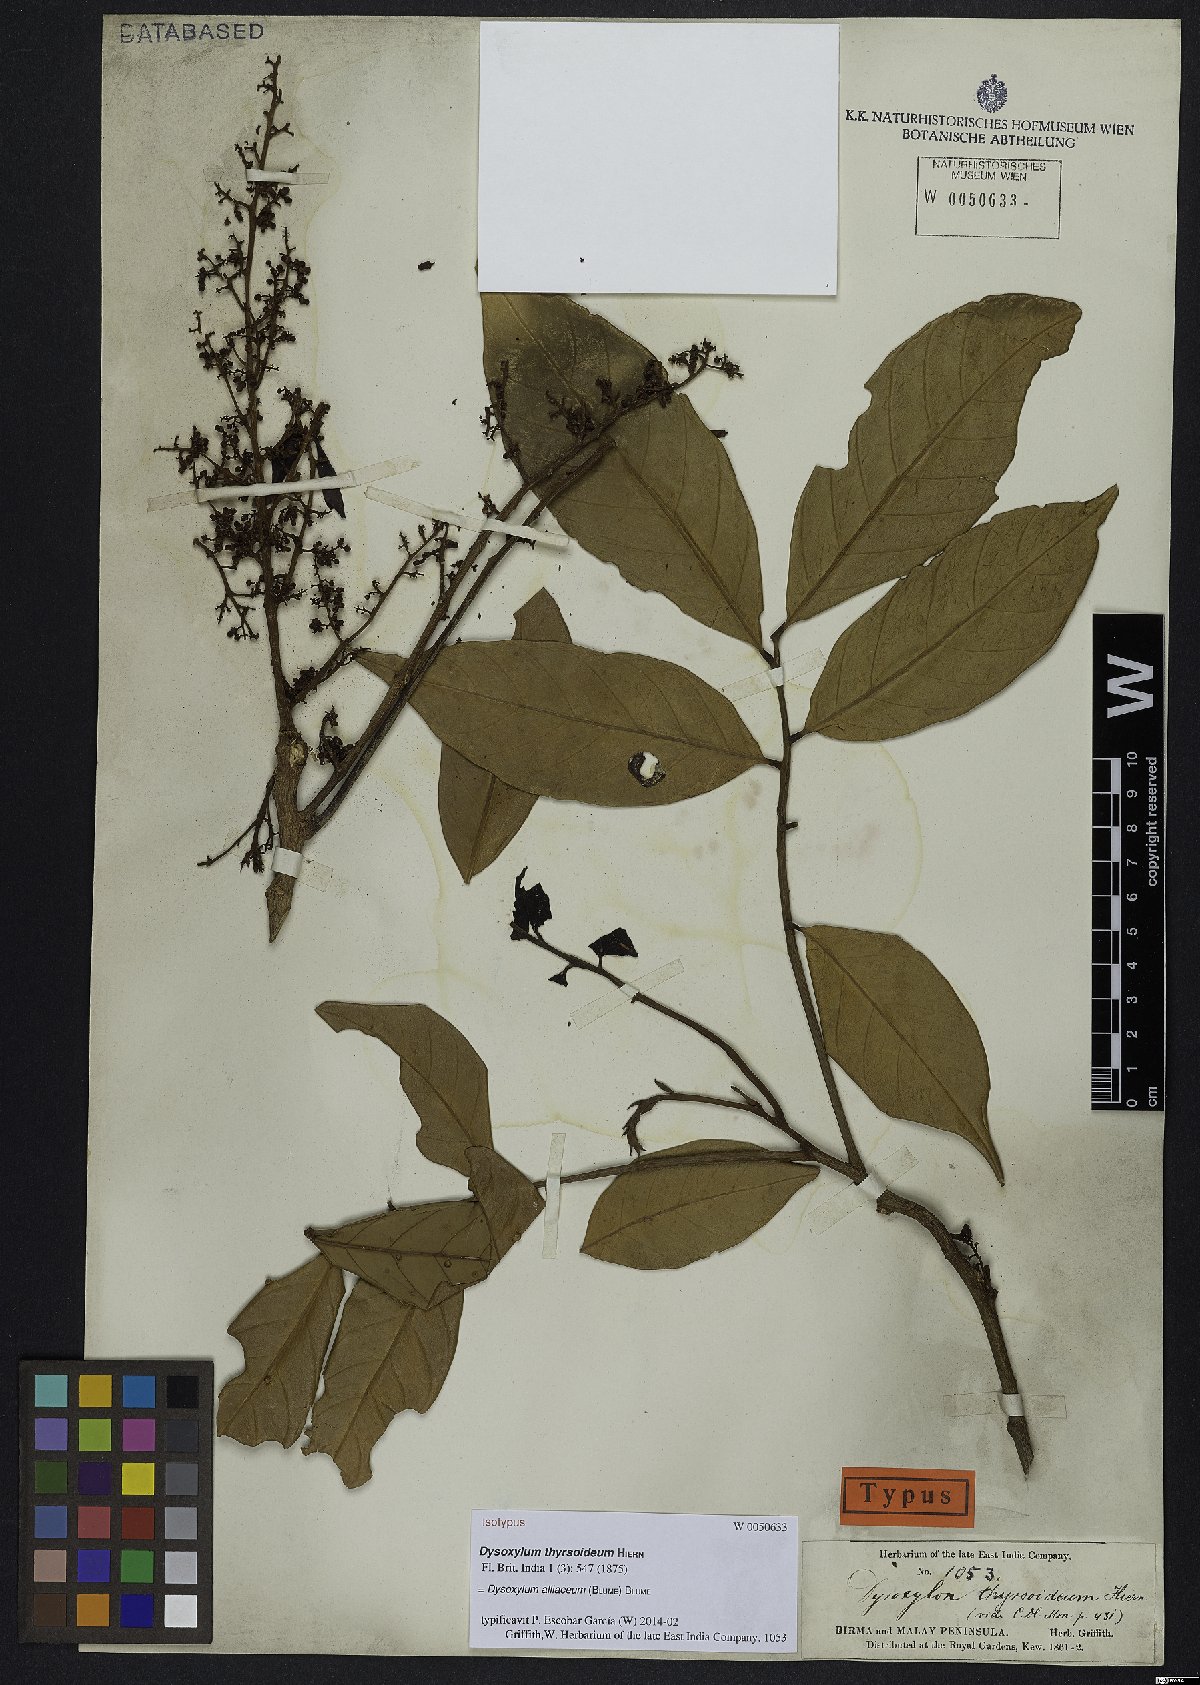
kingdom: Plantae
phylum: Tracheophyta
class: Magnoliopsida
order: Sapindales
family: Meliaceae
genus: Prasoxylon
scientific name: Prasoxylon alliaceum
